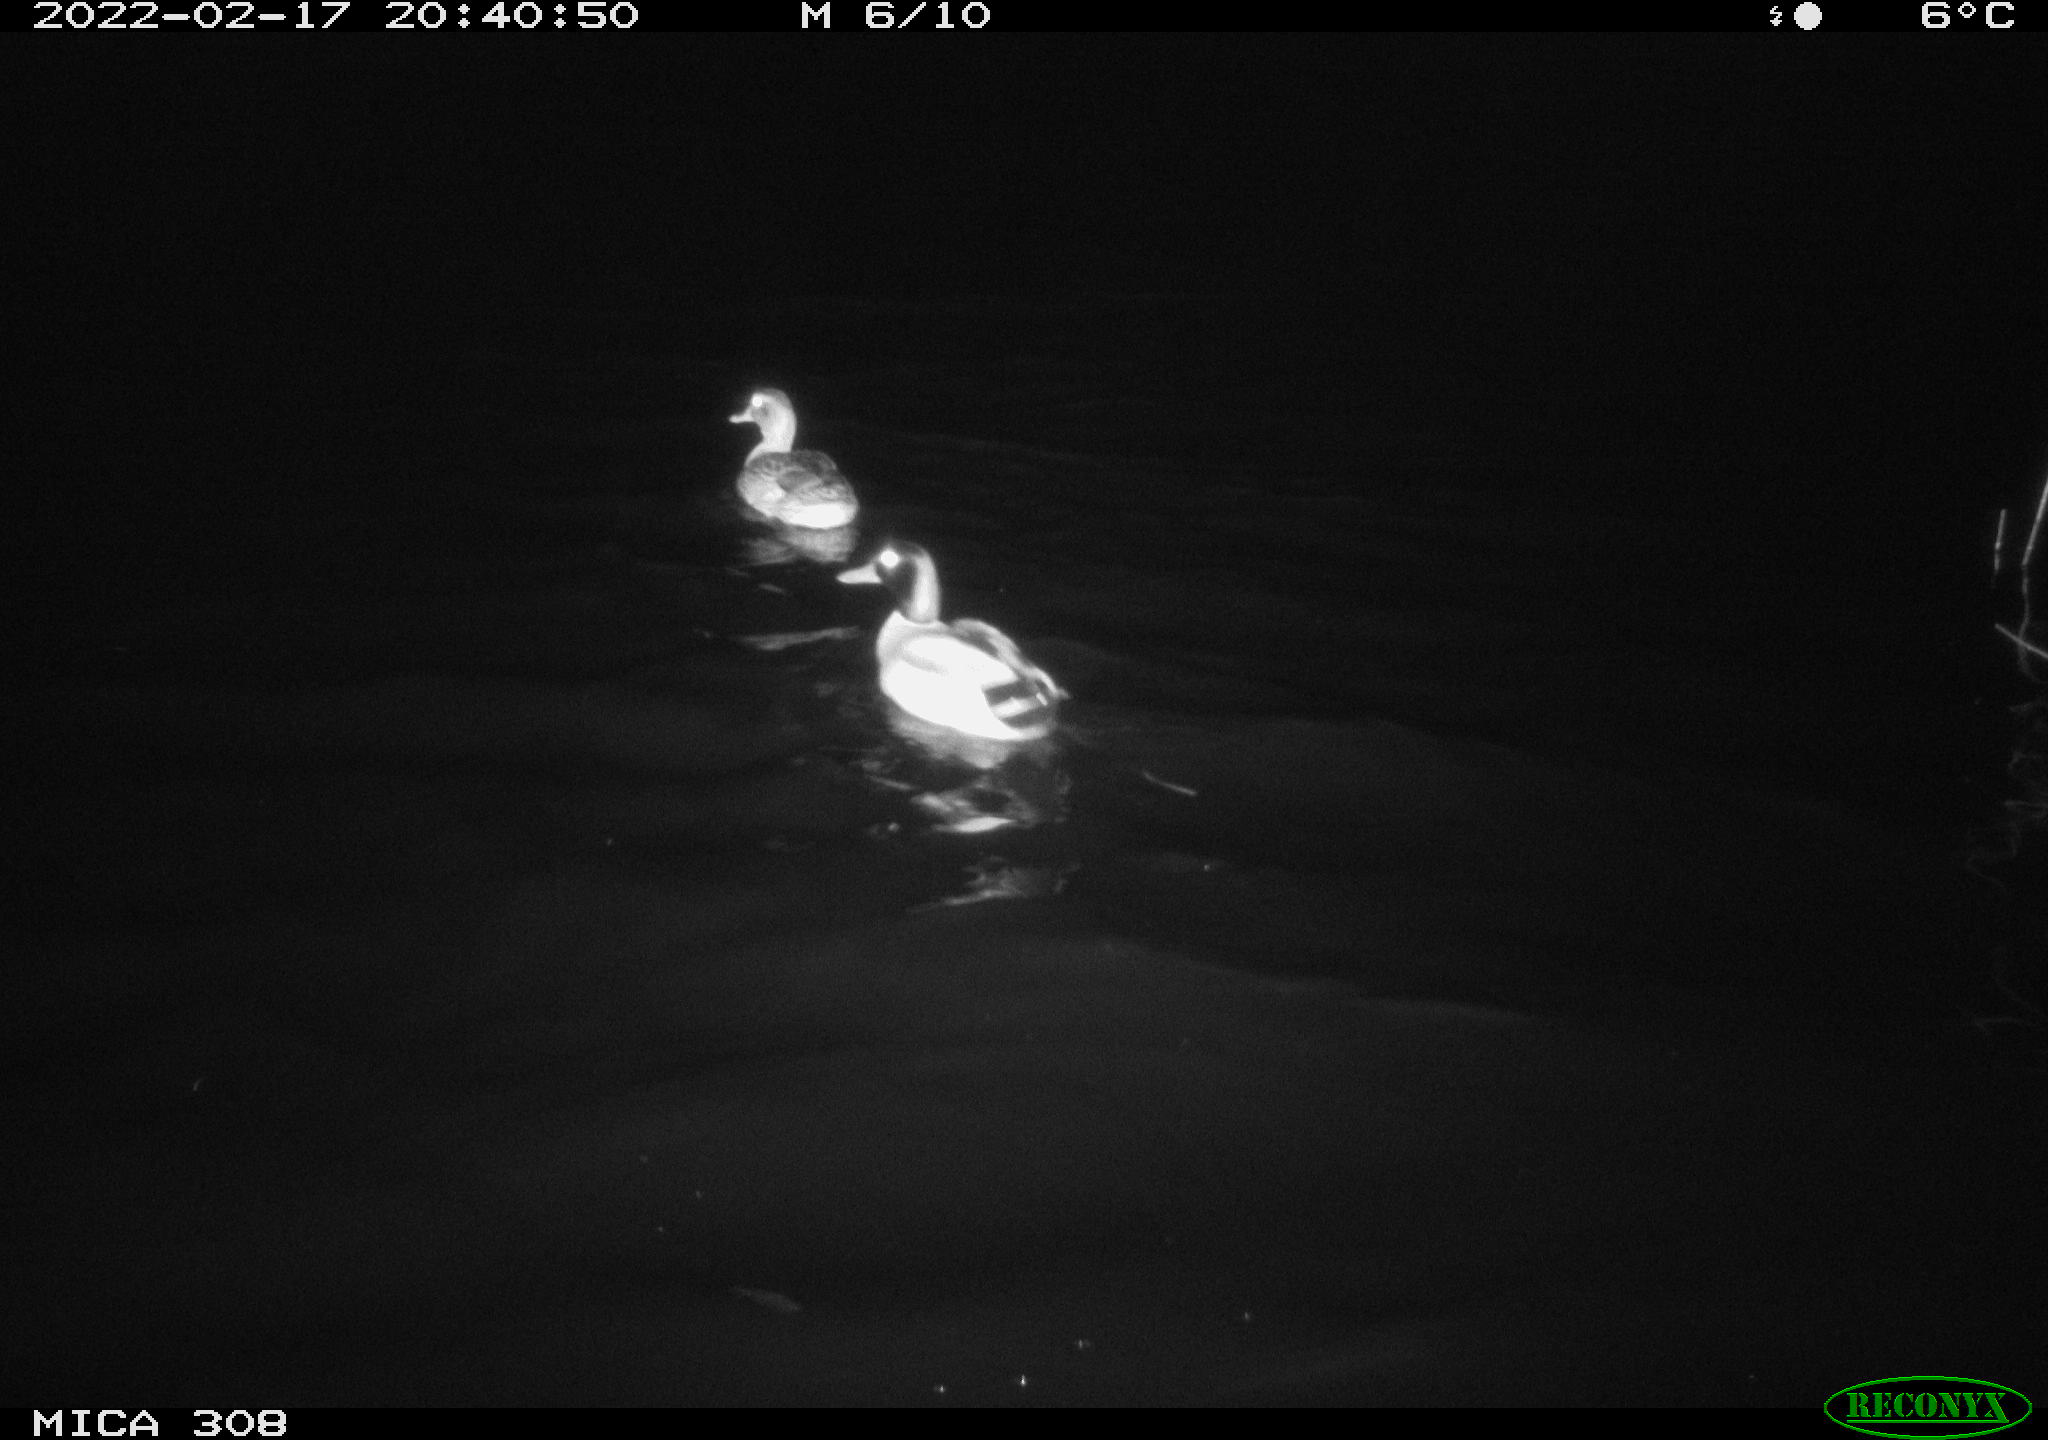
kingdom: Animalia
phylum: Chordata
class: Aves
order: Anseriformes
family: Anatidae
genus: Anas
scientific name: Anas platyrhynchos
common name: Mallard
